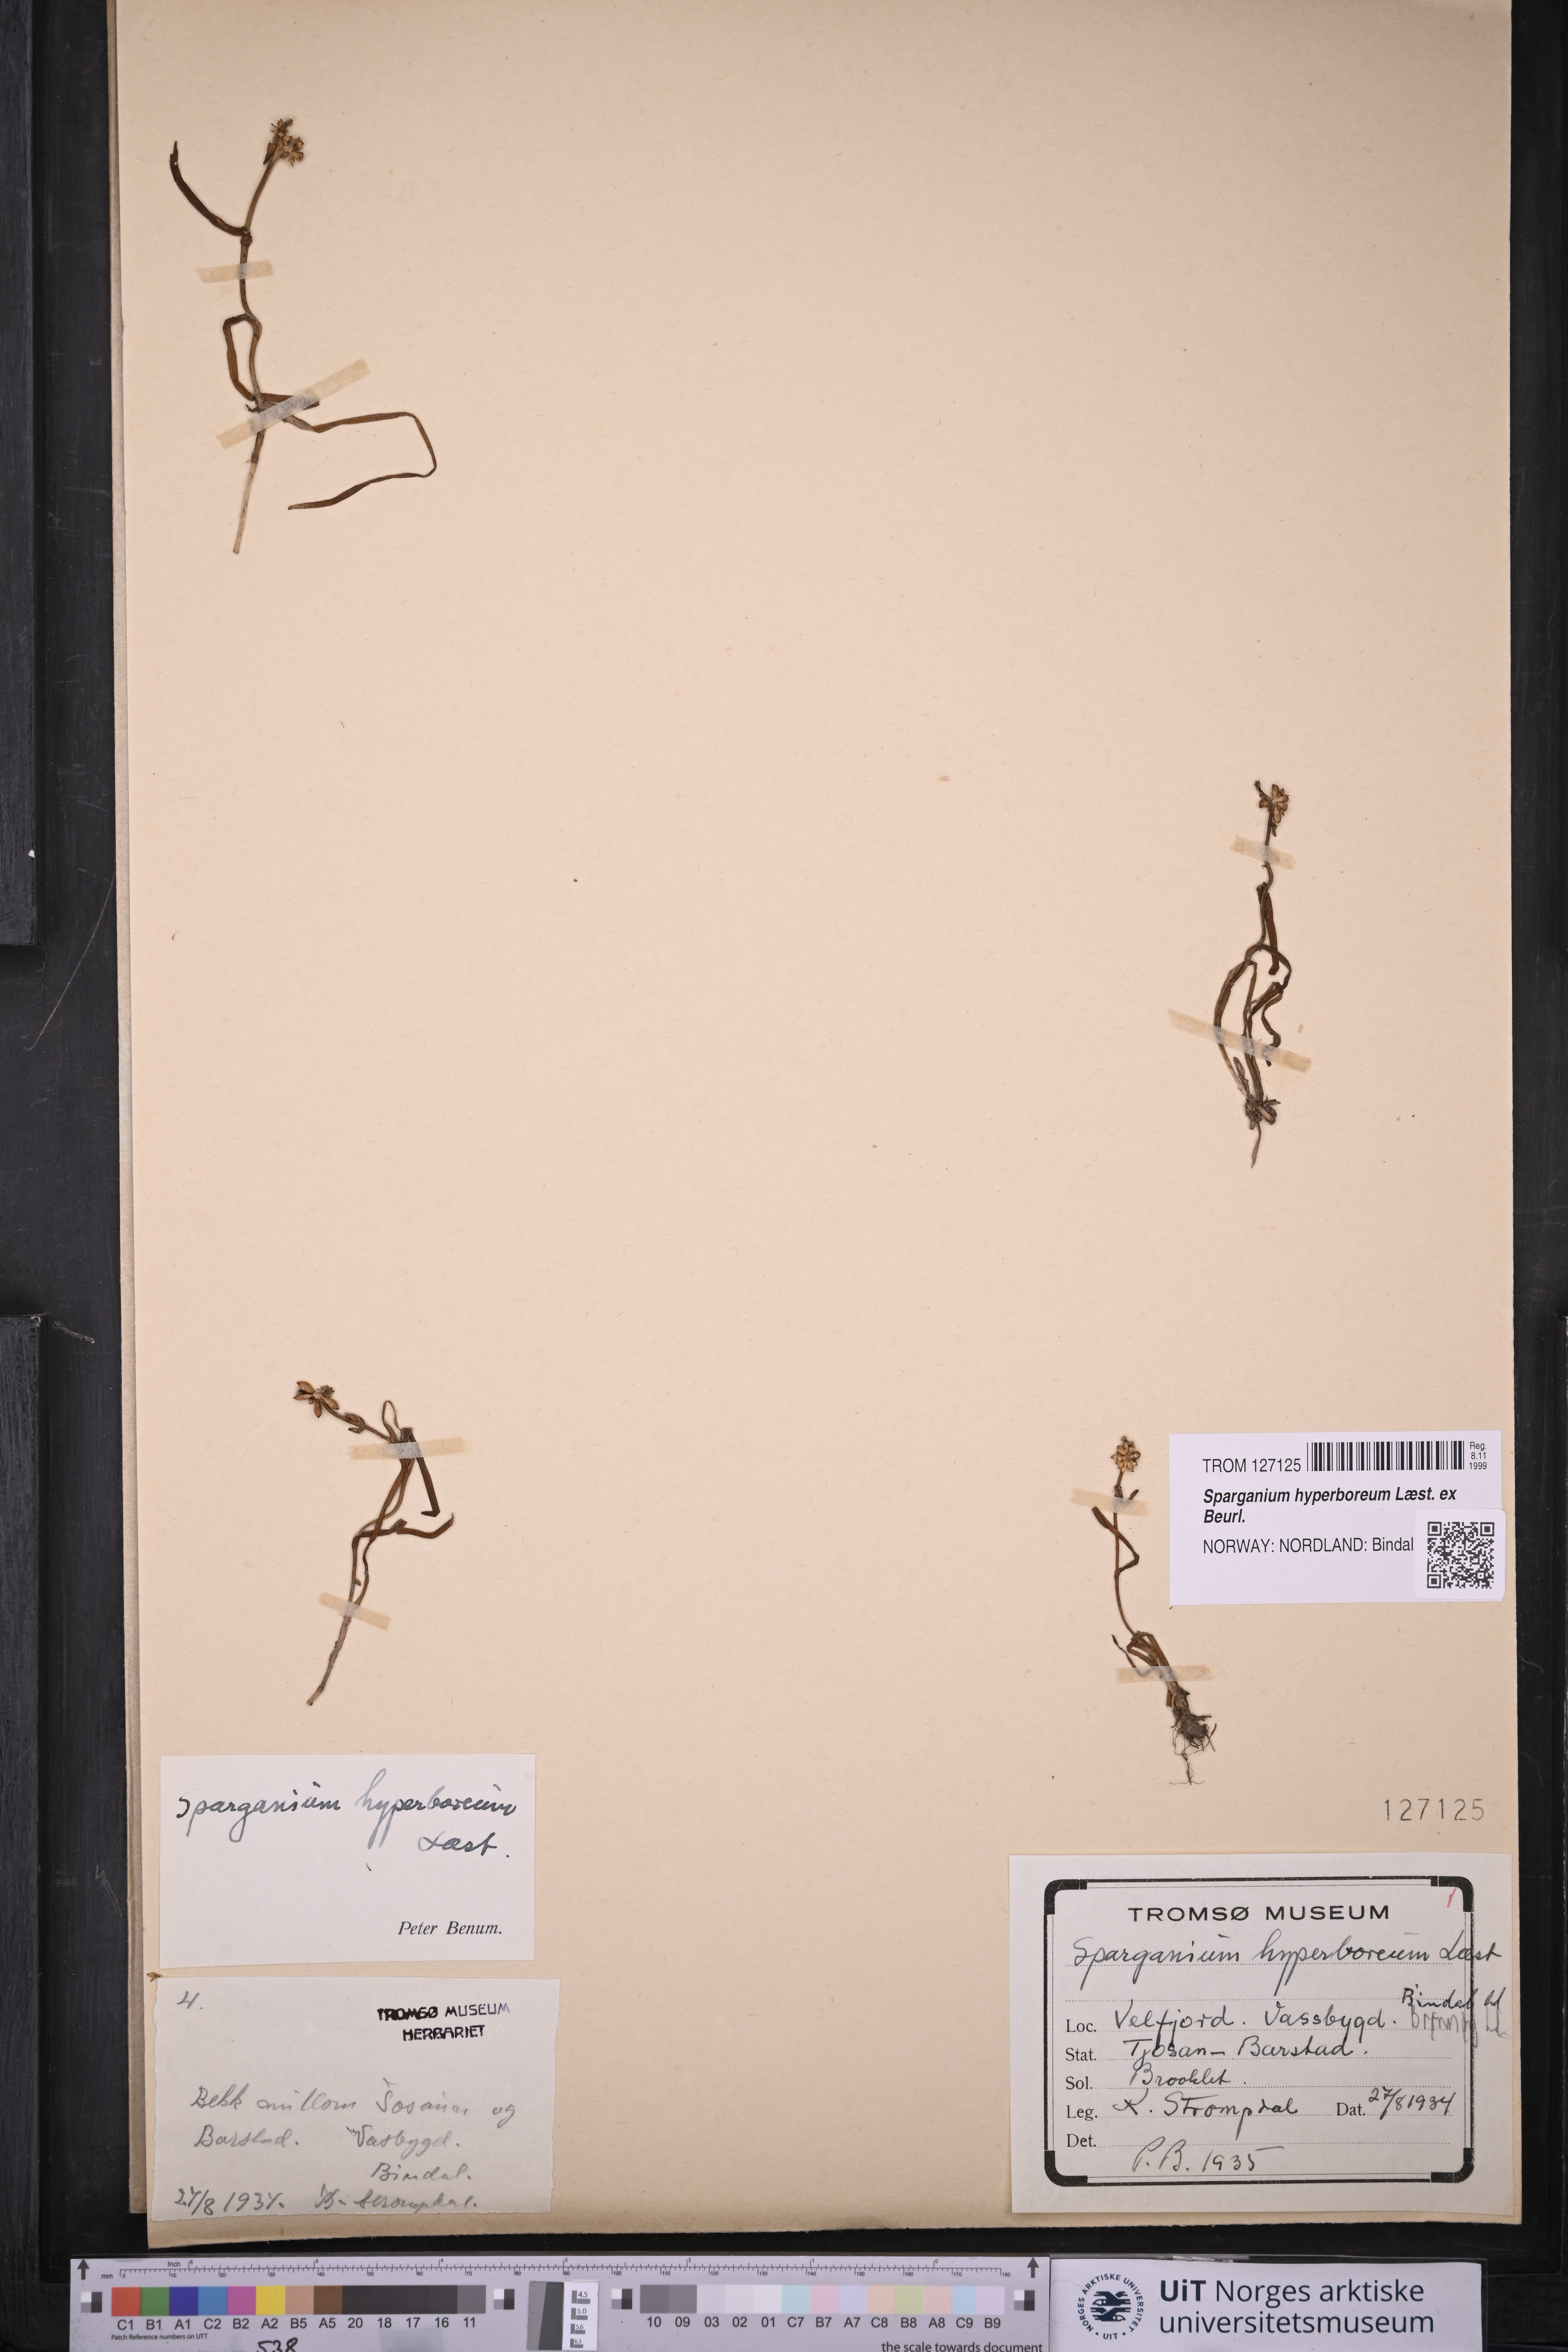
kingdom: Plantae
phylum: Tracheophyta
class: Liliopsida
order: Poales
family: Typhaceae
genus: Sparganium
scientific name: Sparganium hyperboreum
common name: Arctic burreed
